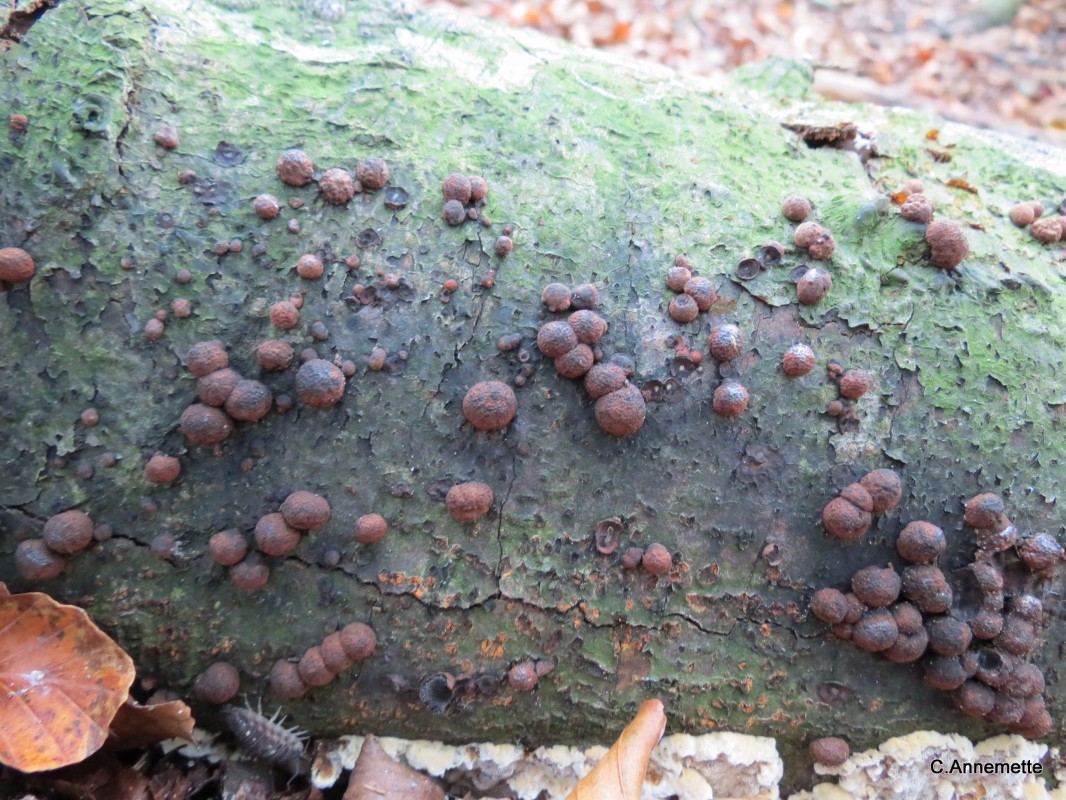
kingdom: Fungi
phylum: Ascomycota
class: Sordariomycetes
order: Xylariales
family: Hypoxylaceae
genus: Hypoxylon
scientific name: Hypoxylon fragiforme
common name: kuljordbær
